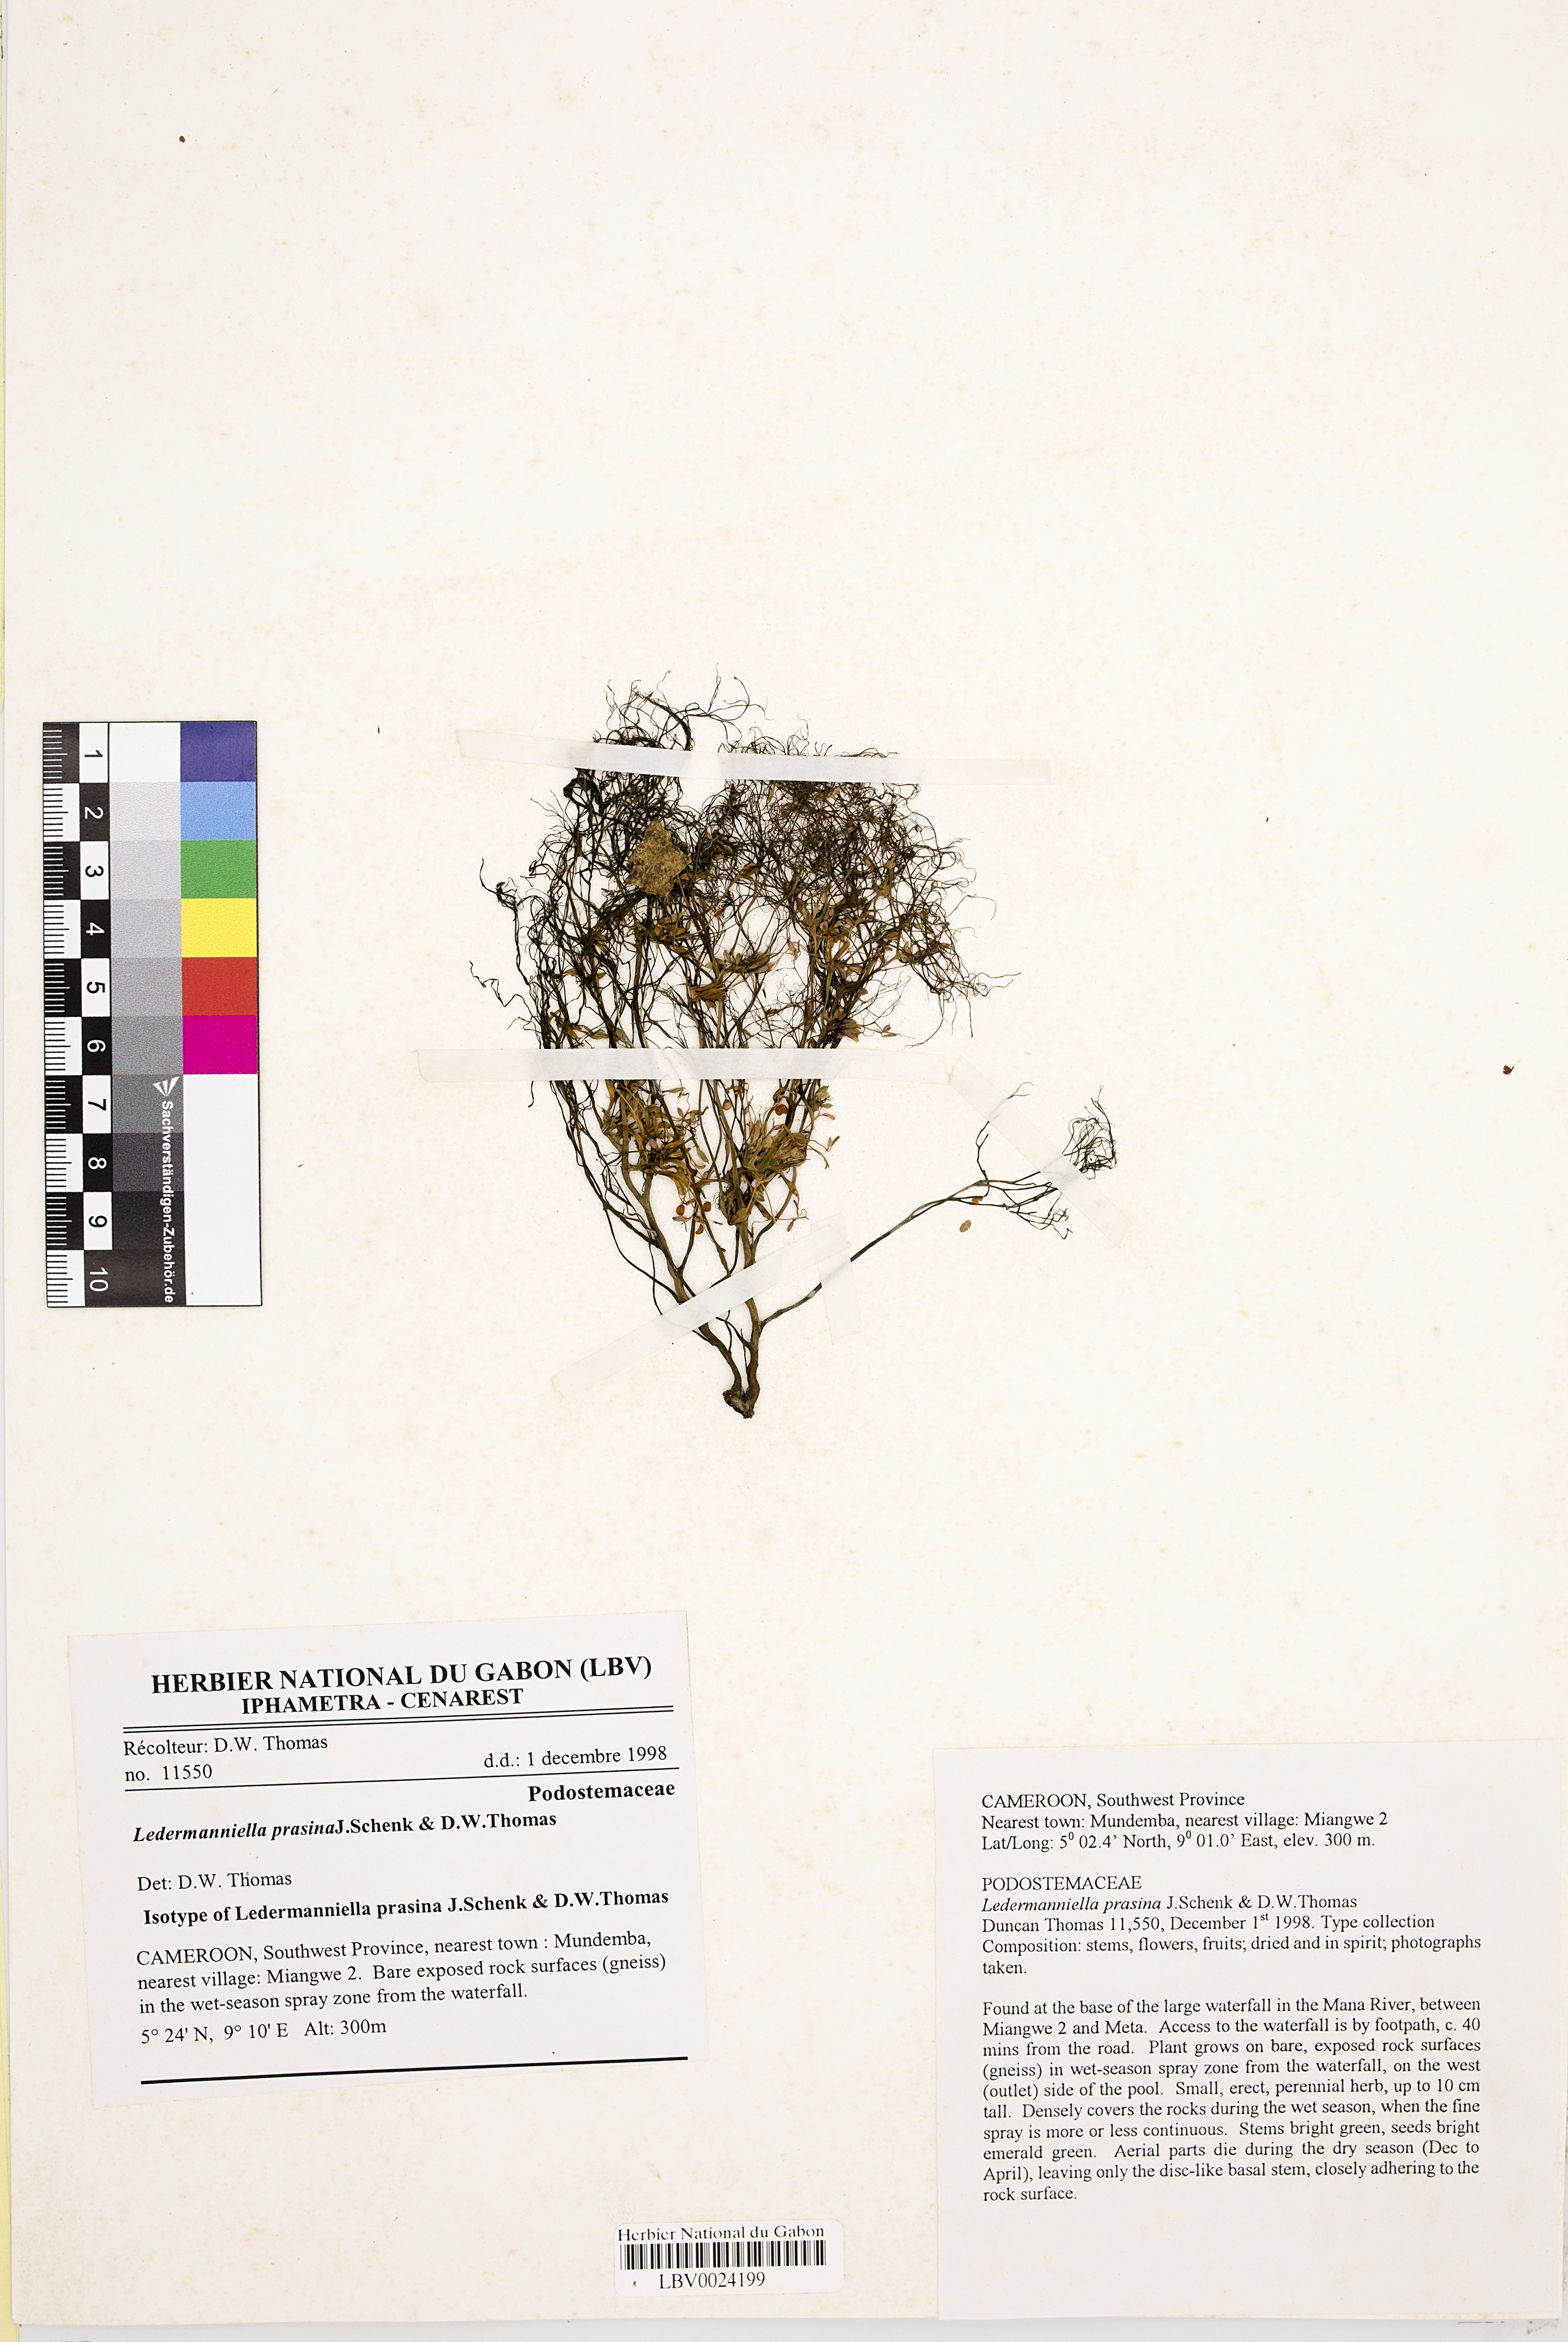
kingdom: Plantae
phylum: Tracheophyta
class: Magnoliopsida
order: Malpighiales
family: Podostemaceae
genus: Ledermanniella
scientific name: Ledermanniella prasina
